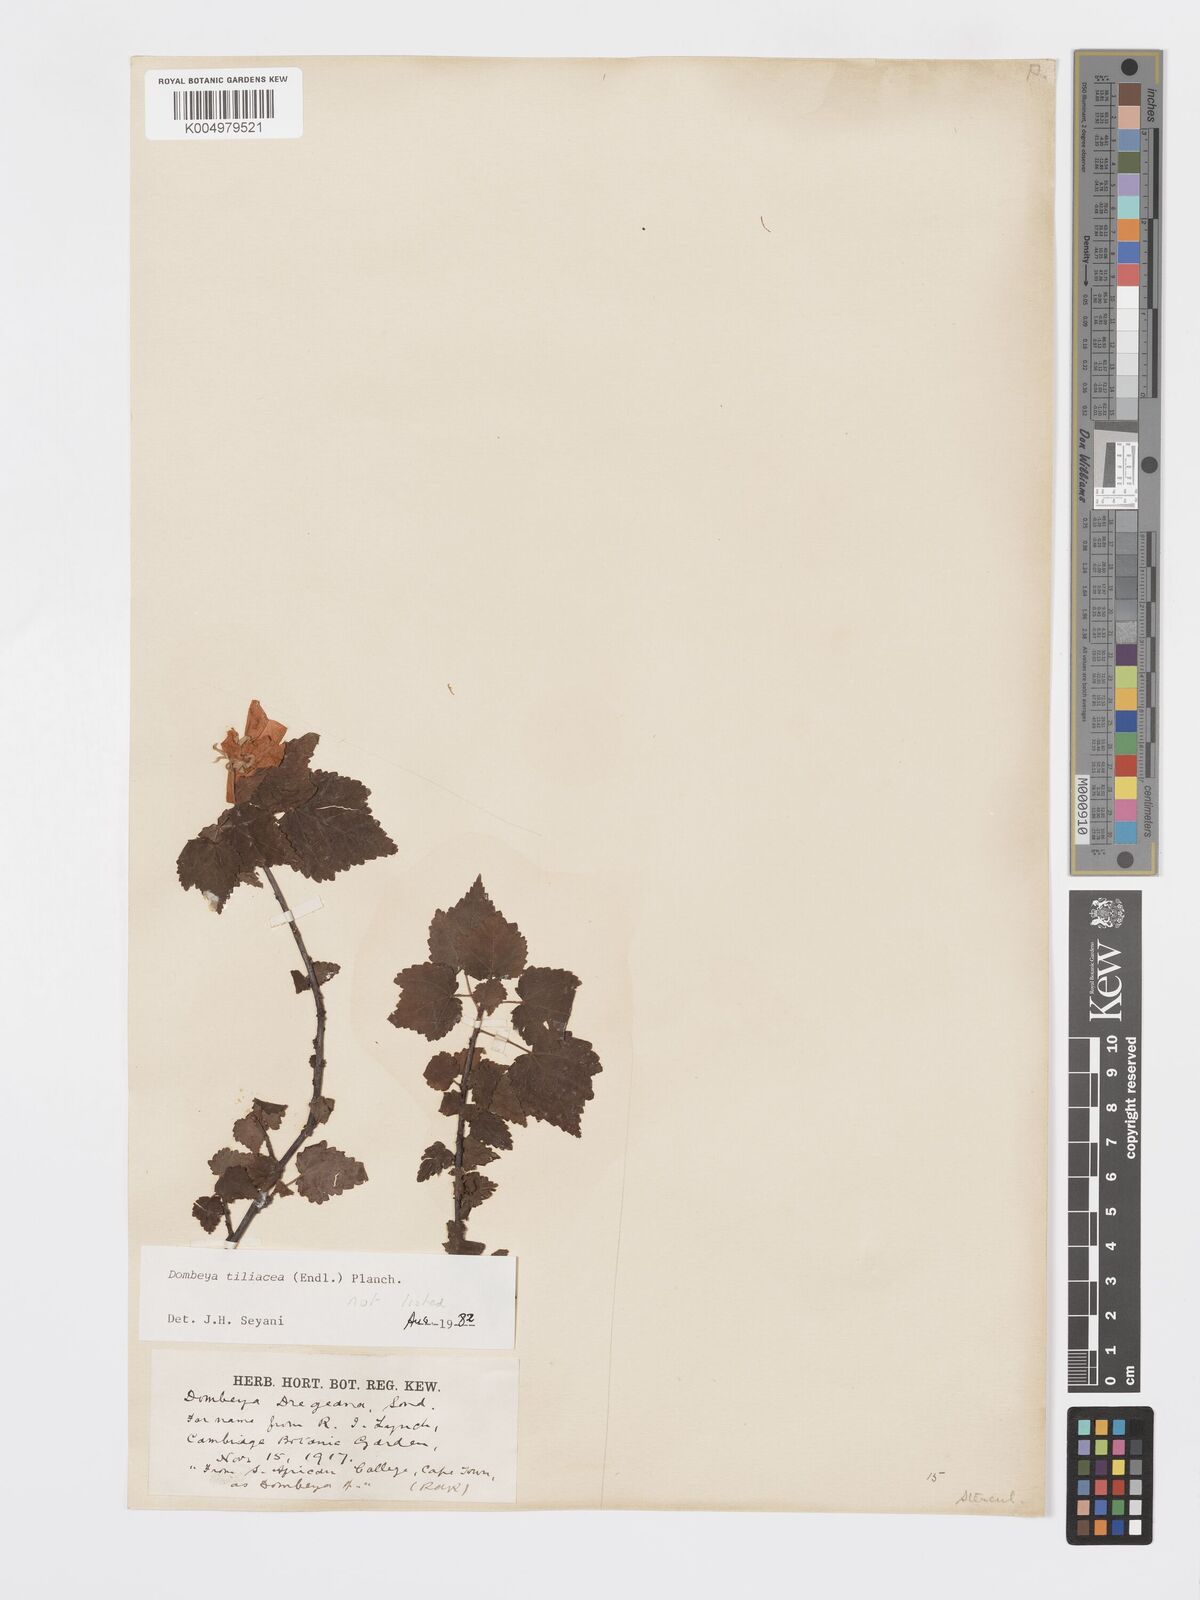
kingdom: Plantae
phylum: Tracheophyta
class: Magnoliopsida
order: Malvales
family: Malvaceae
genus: Dombeya
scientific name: Dombeya tiliacea
